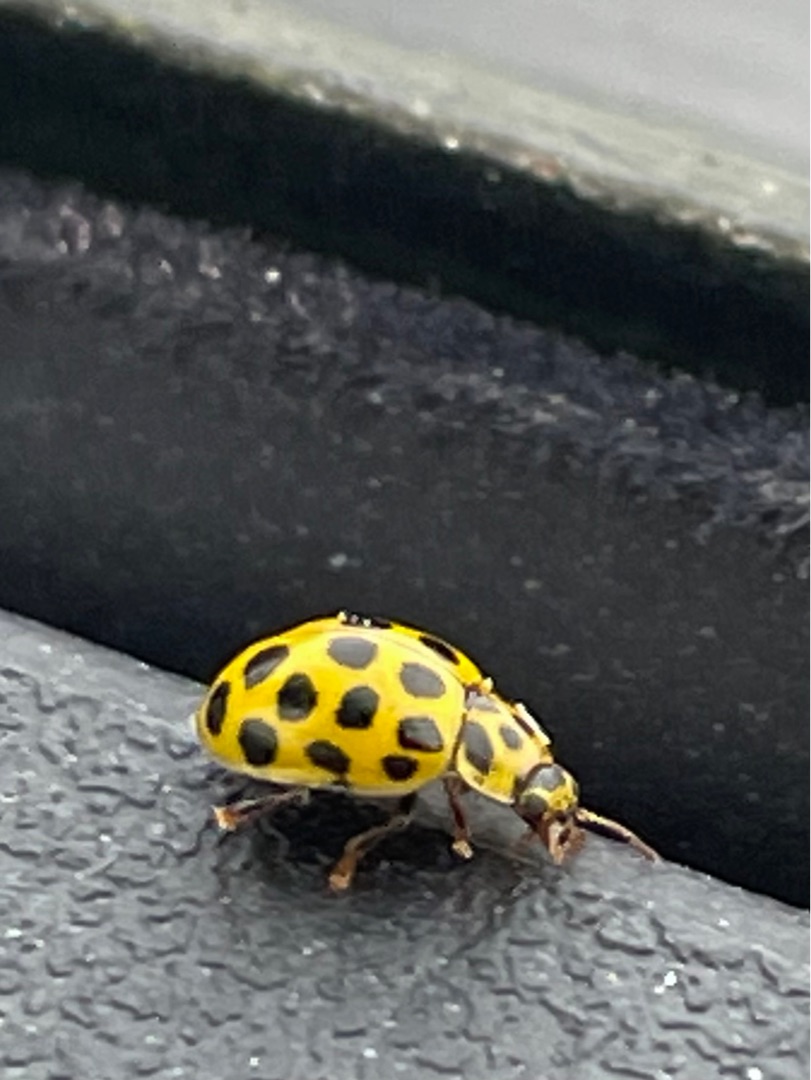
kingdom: Animalia
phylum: Arthropoda
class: Insecta
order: Coleoptera
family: Coccinellidae
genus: Psyllobora
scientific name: Psyllobora vigintiduopunctata
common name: Toogtyveplettet mariehøne
